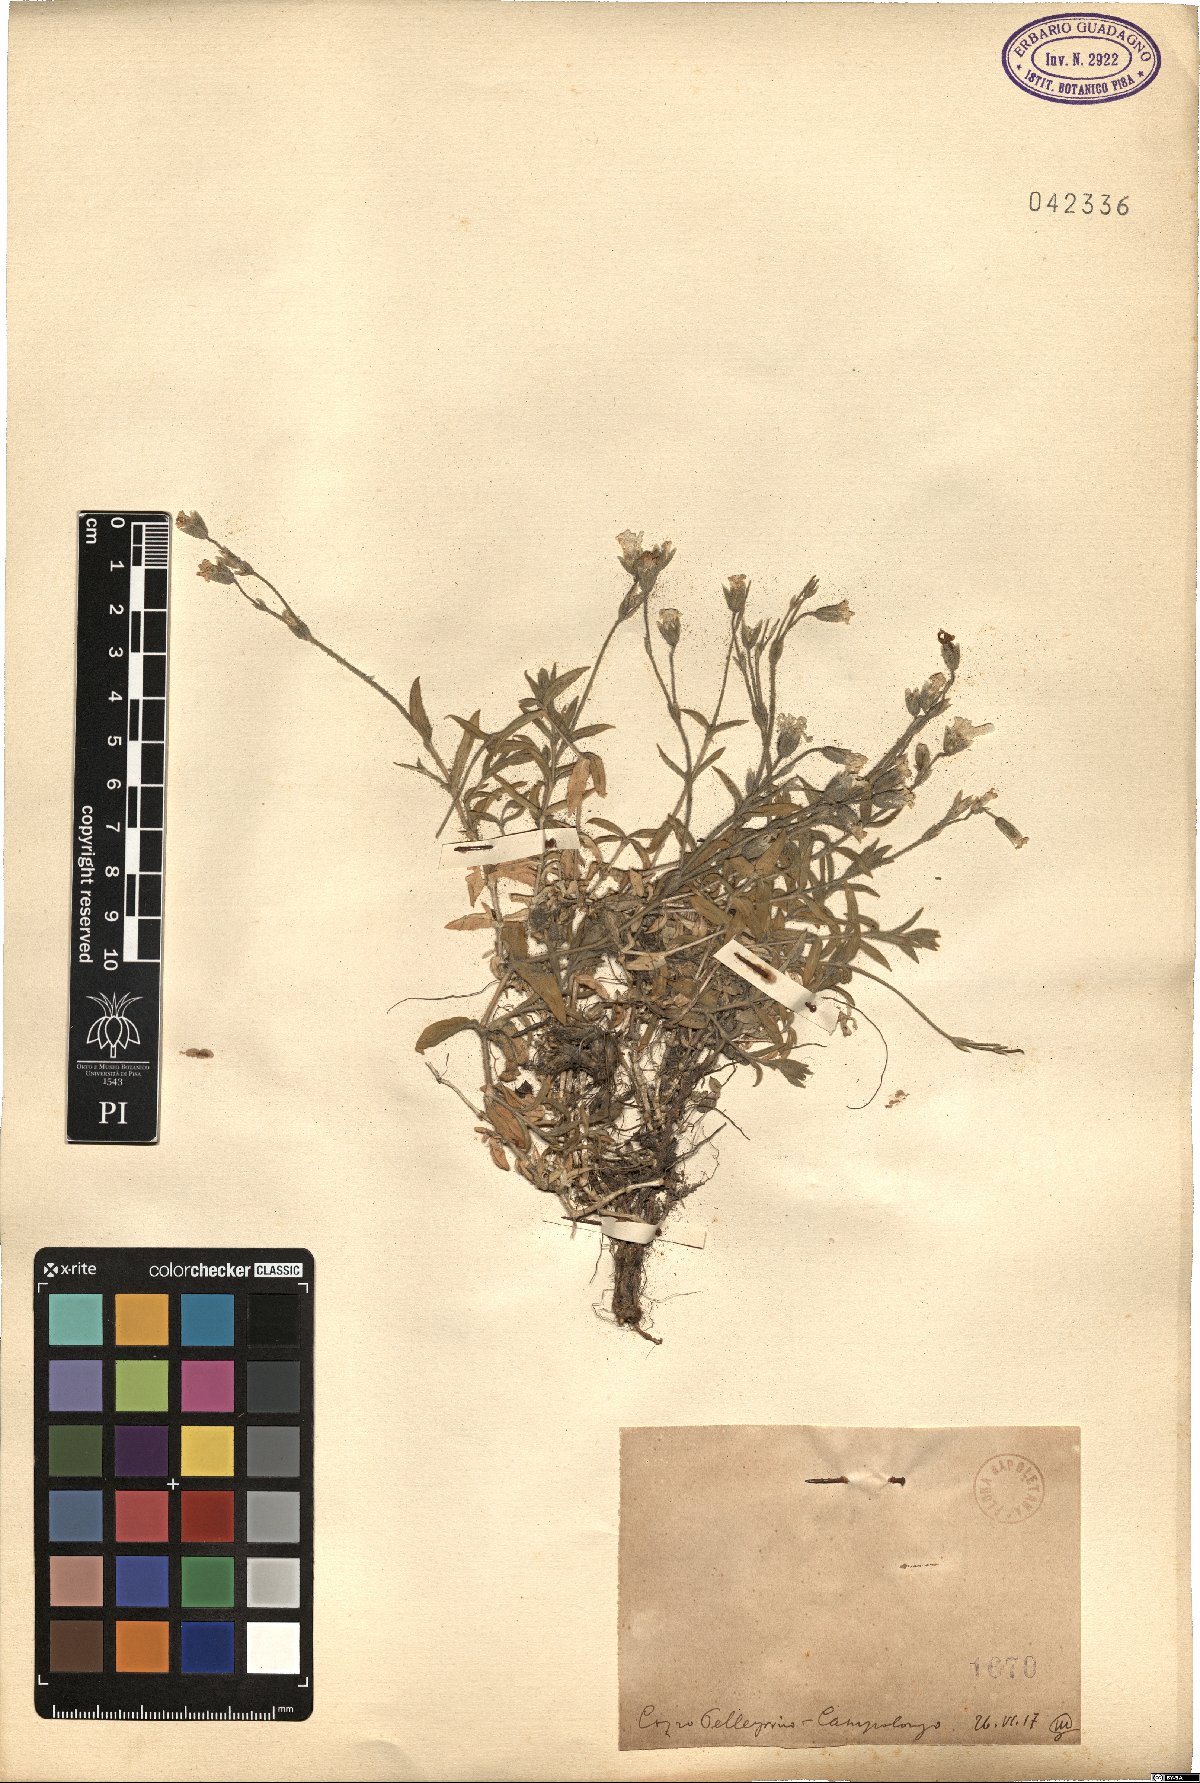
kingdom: Plantae
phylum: Tracheophyta
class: Magnoliopsida
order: Caryophyllales
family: Caryophyllaceae
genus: Cerastium
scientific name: Cerastium
